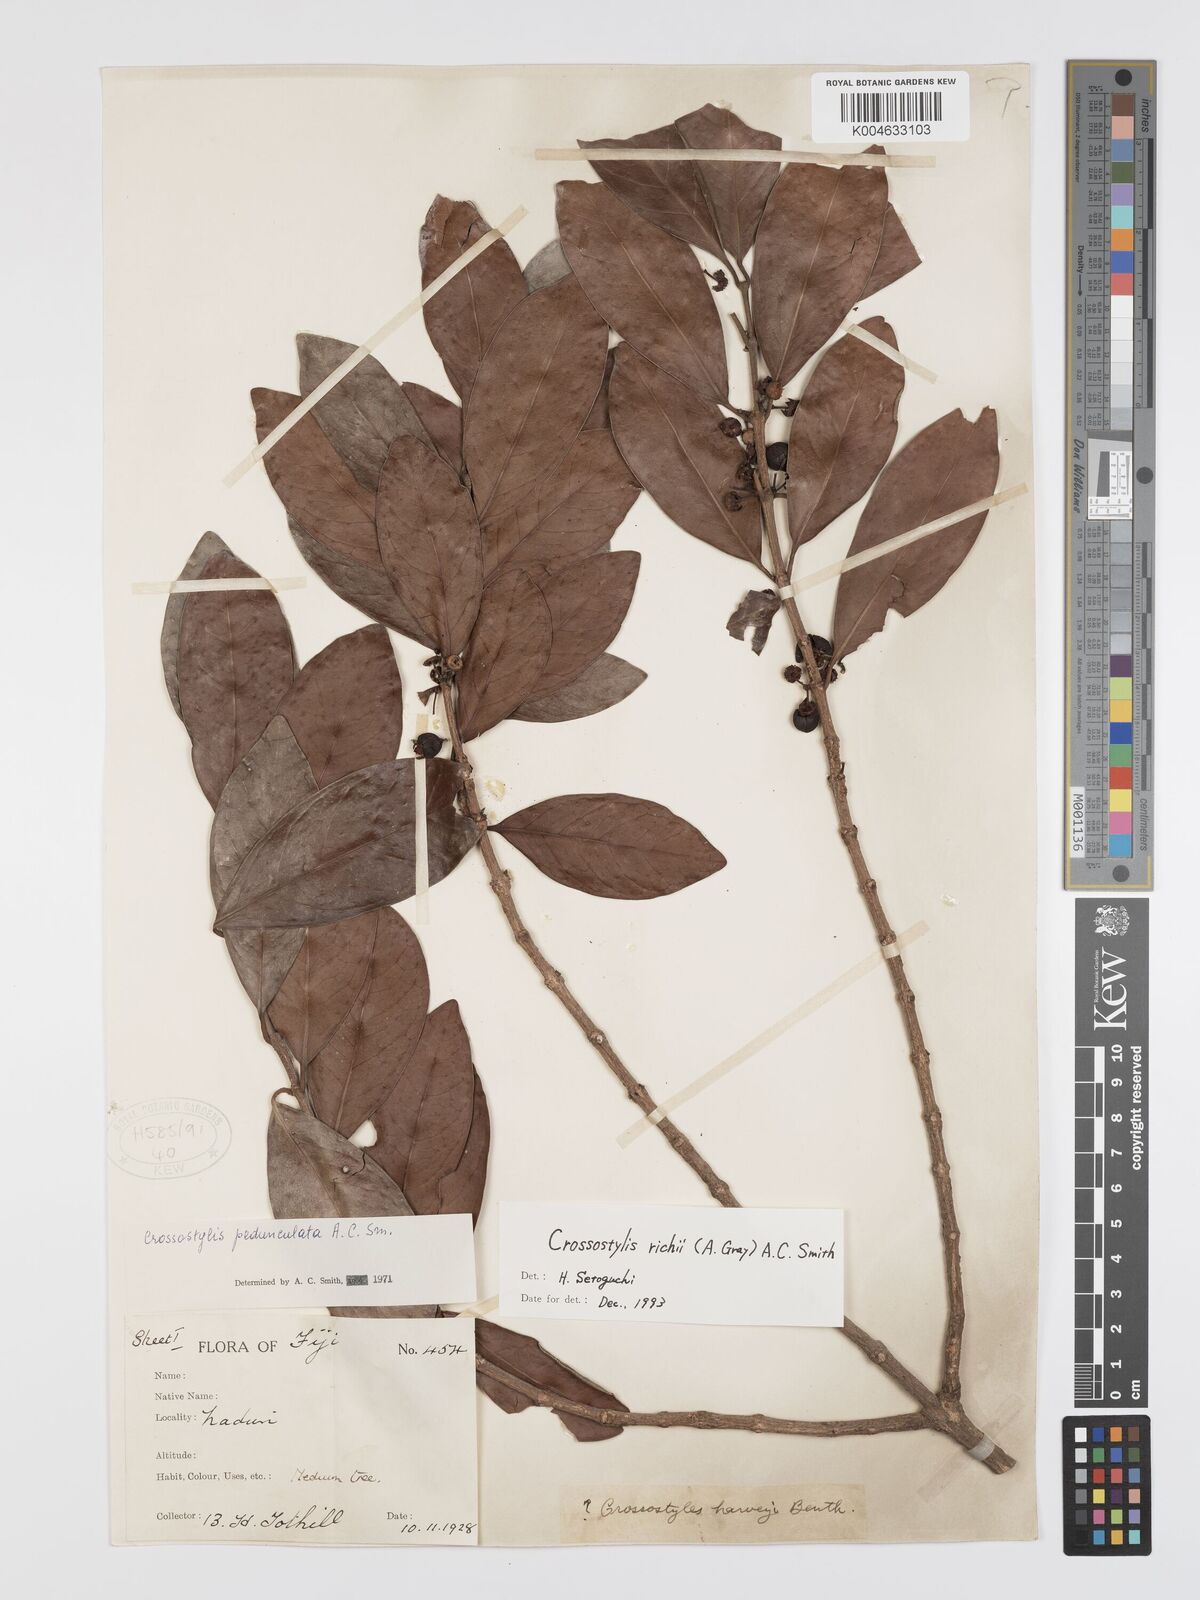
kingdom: Plantae
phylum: Tracheophyta
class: Magnoliopsida
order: Malpighiales
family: Rhizophoraceae
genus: Crossostylis
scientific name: Crossostylis richii
